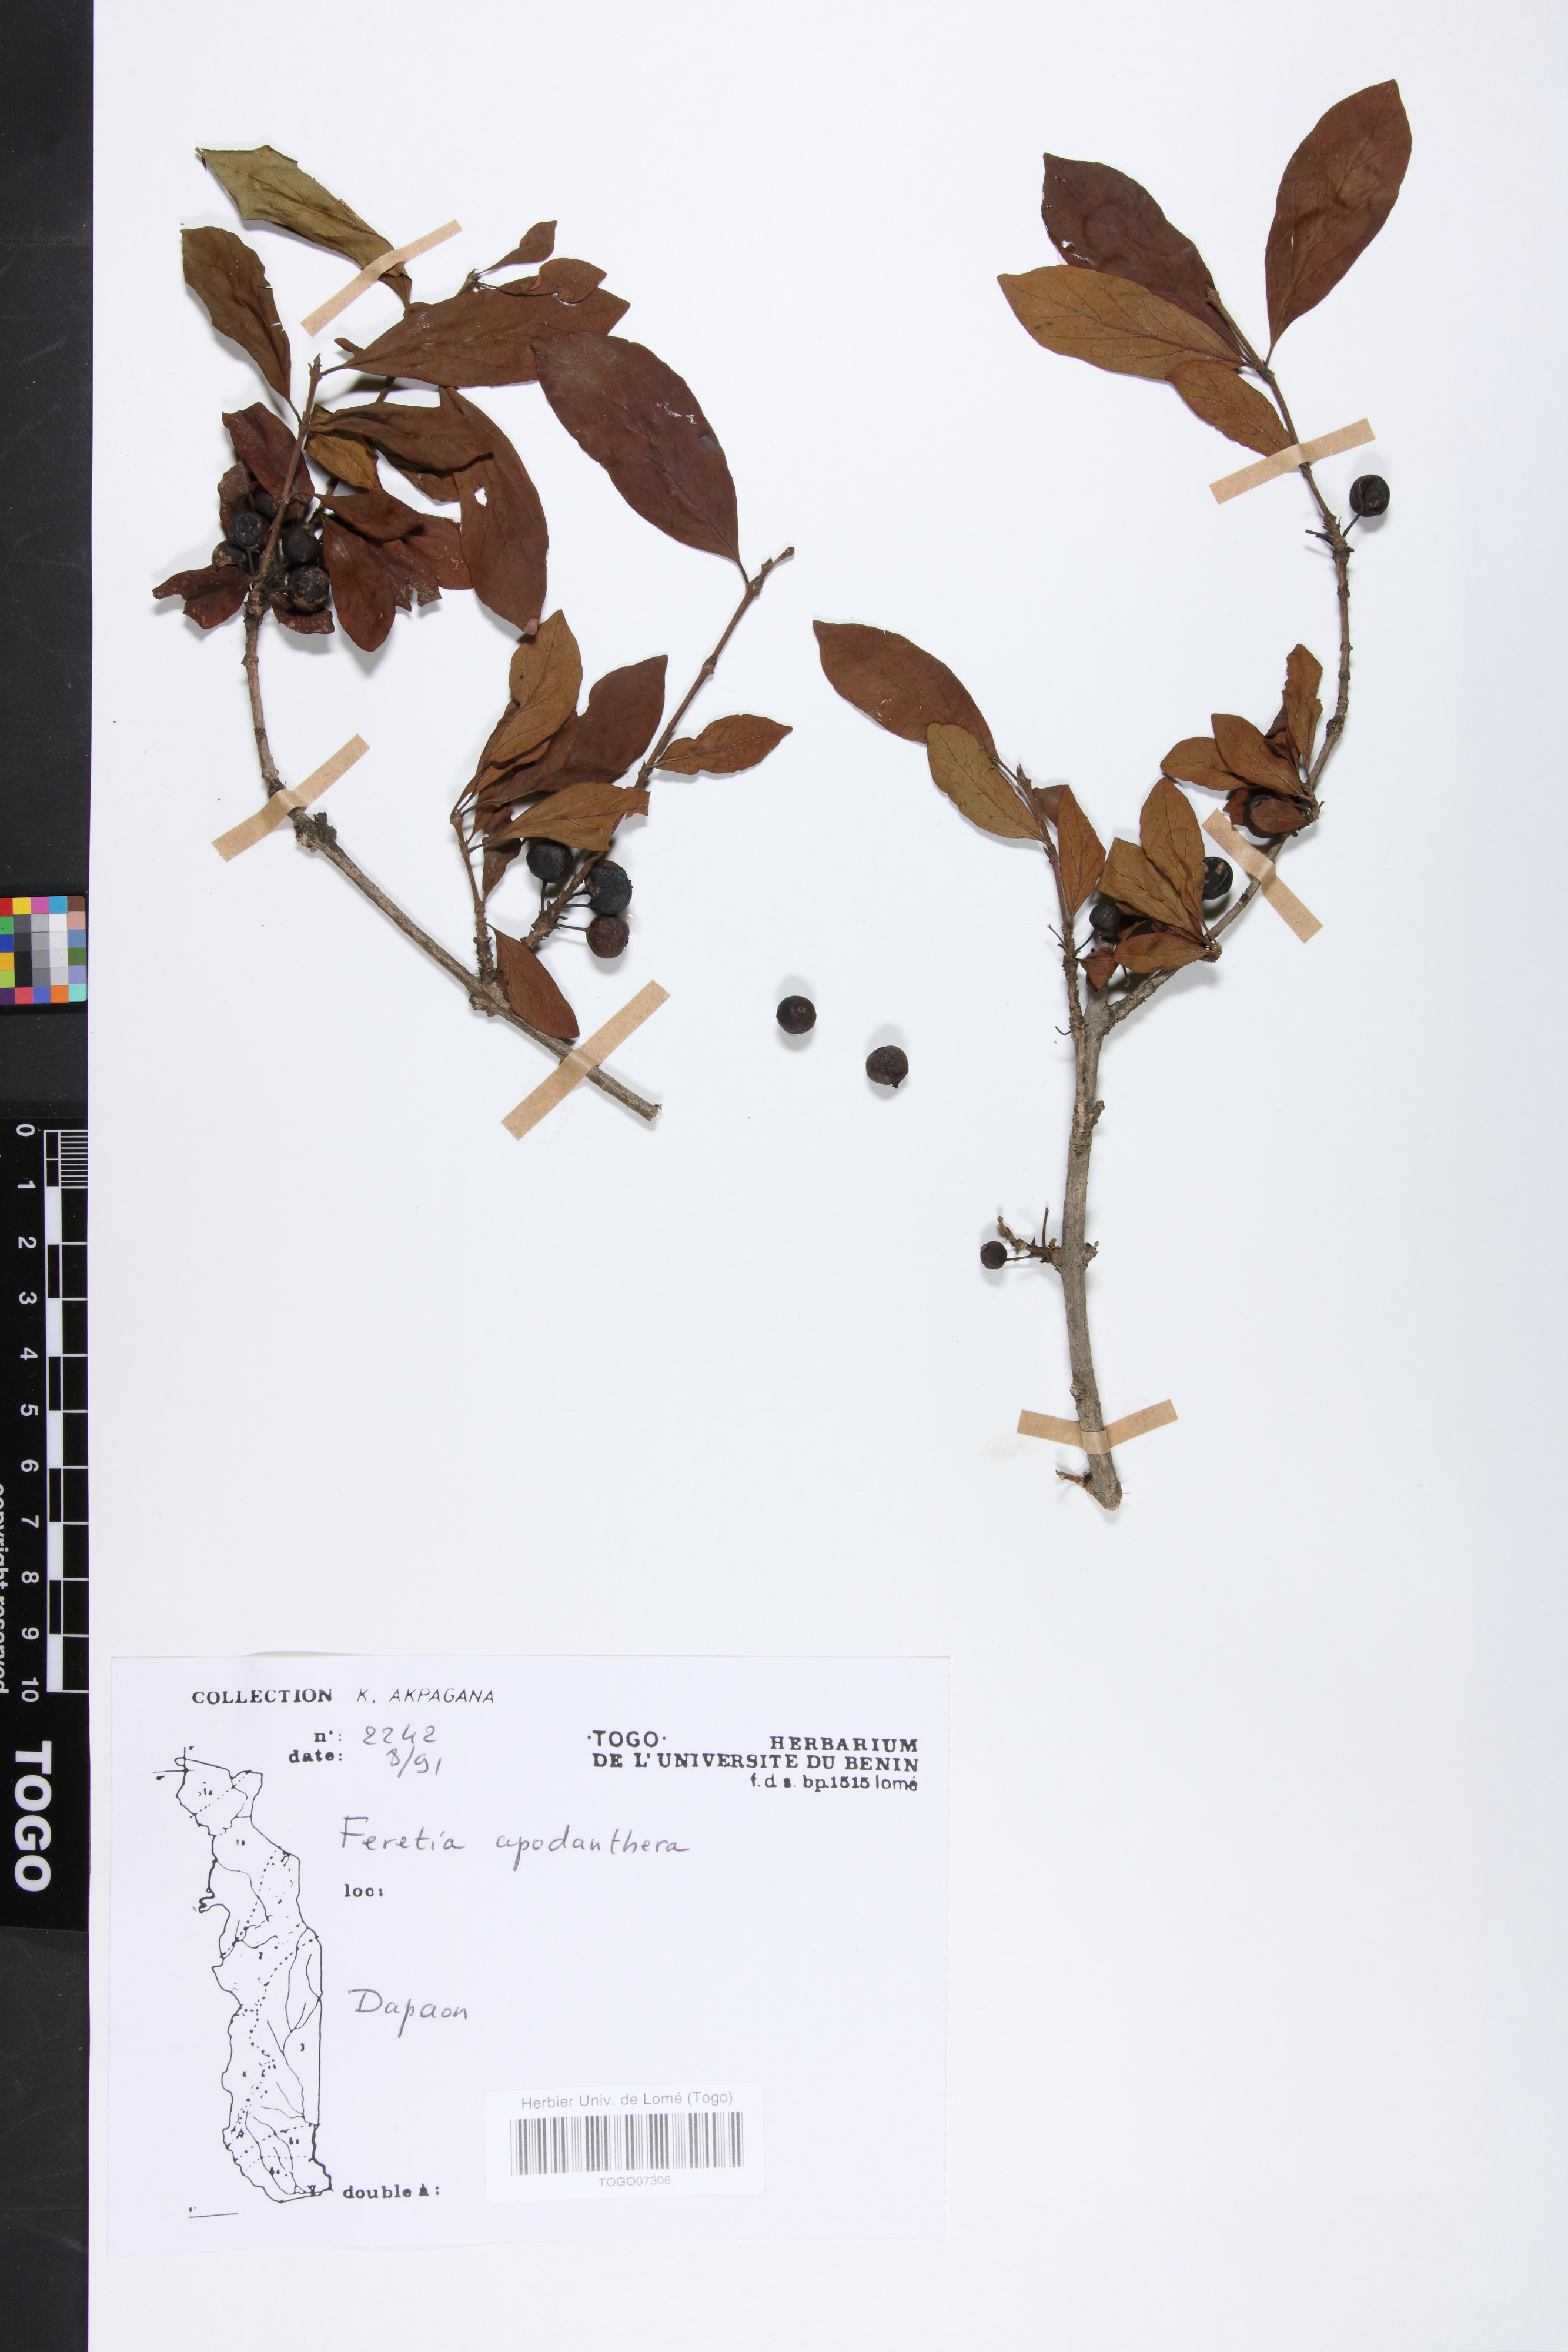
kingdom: Plantae
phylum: Tracheophyta
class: Magnoliopsida
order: Gentianales
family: Rubiaceae
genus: Feretia
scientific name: Feretia apodanthera
